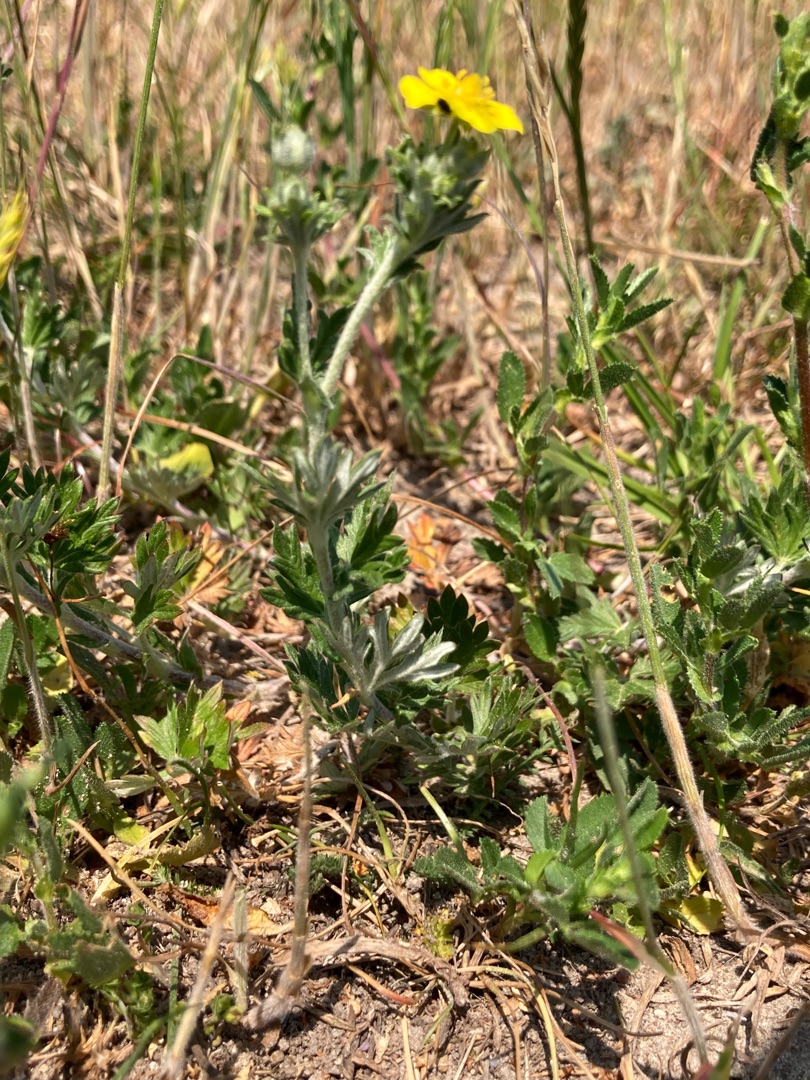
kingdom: Plantae
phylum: Tracheophyta
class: Magnoliopsida
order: Rosales
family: Rosaceae
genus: Potentilla
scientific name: Potentilla argentea
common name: Sølv-potentil
